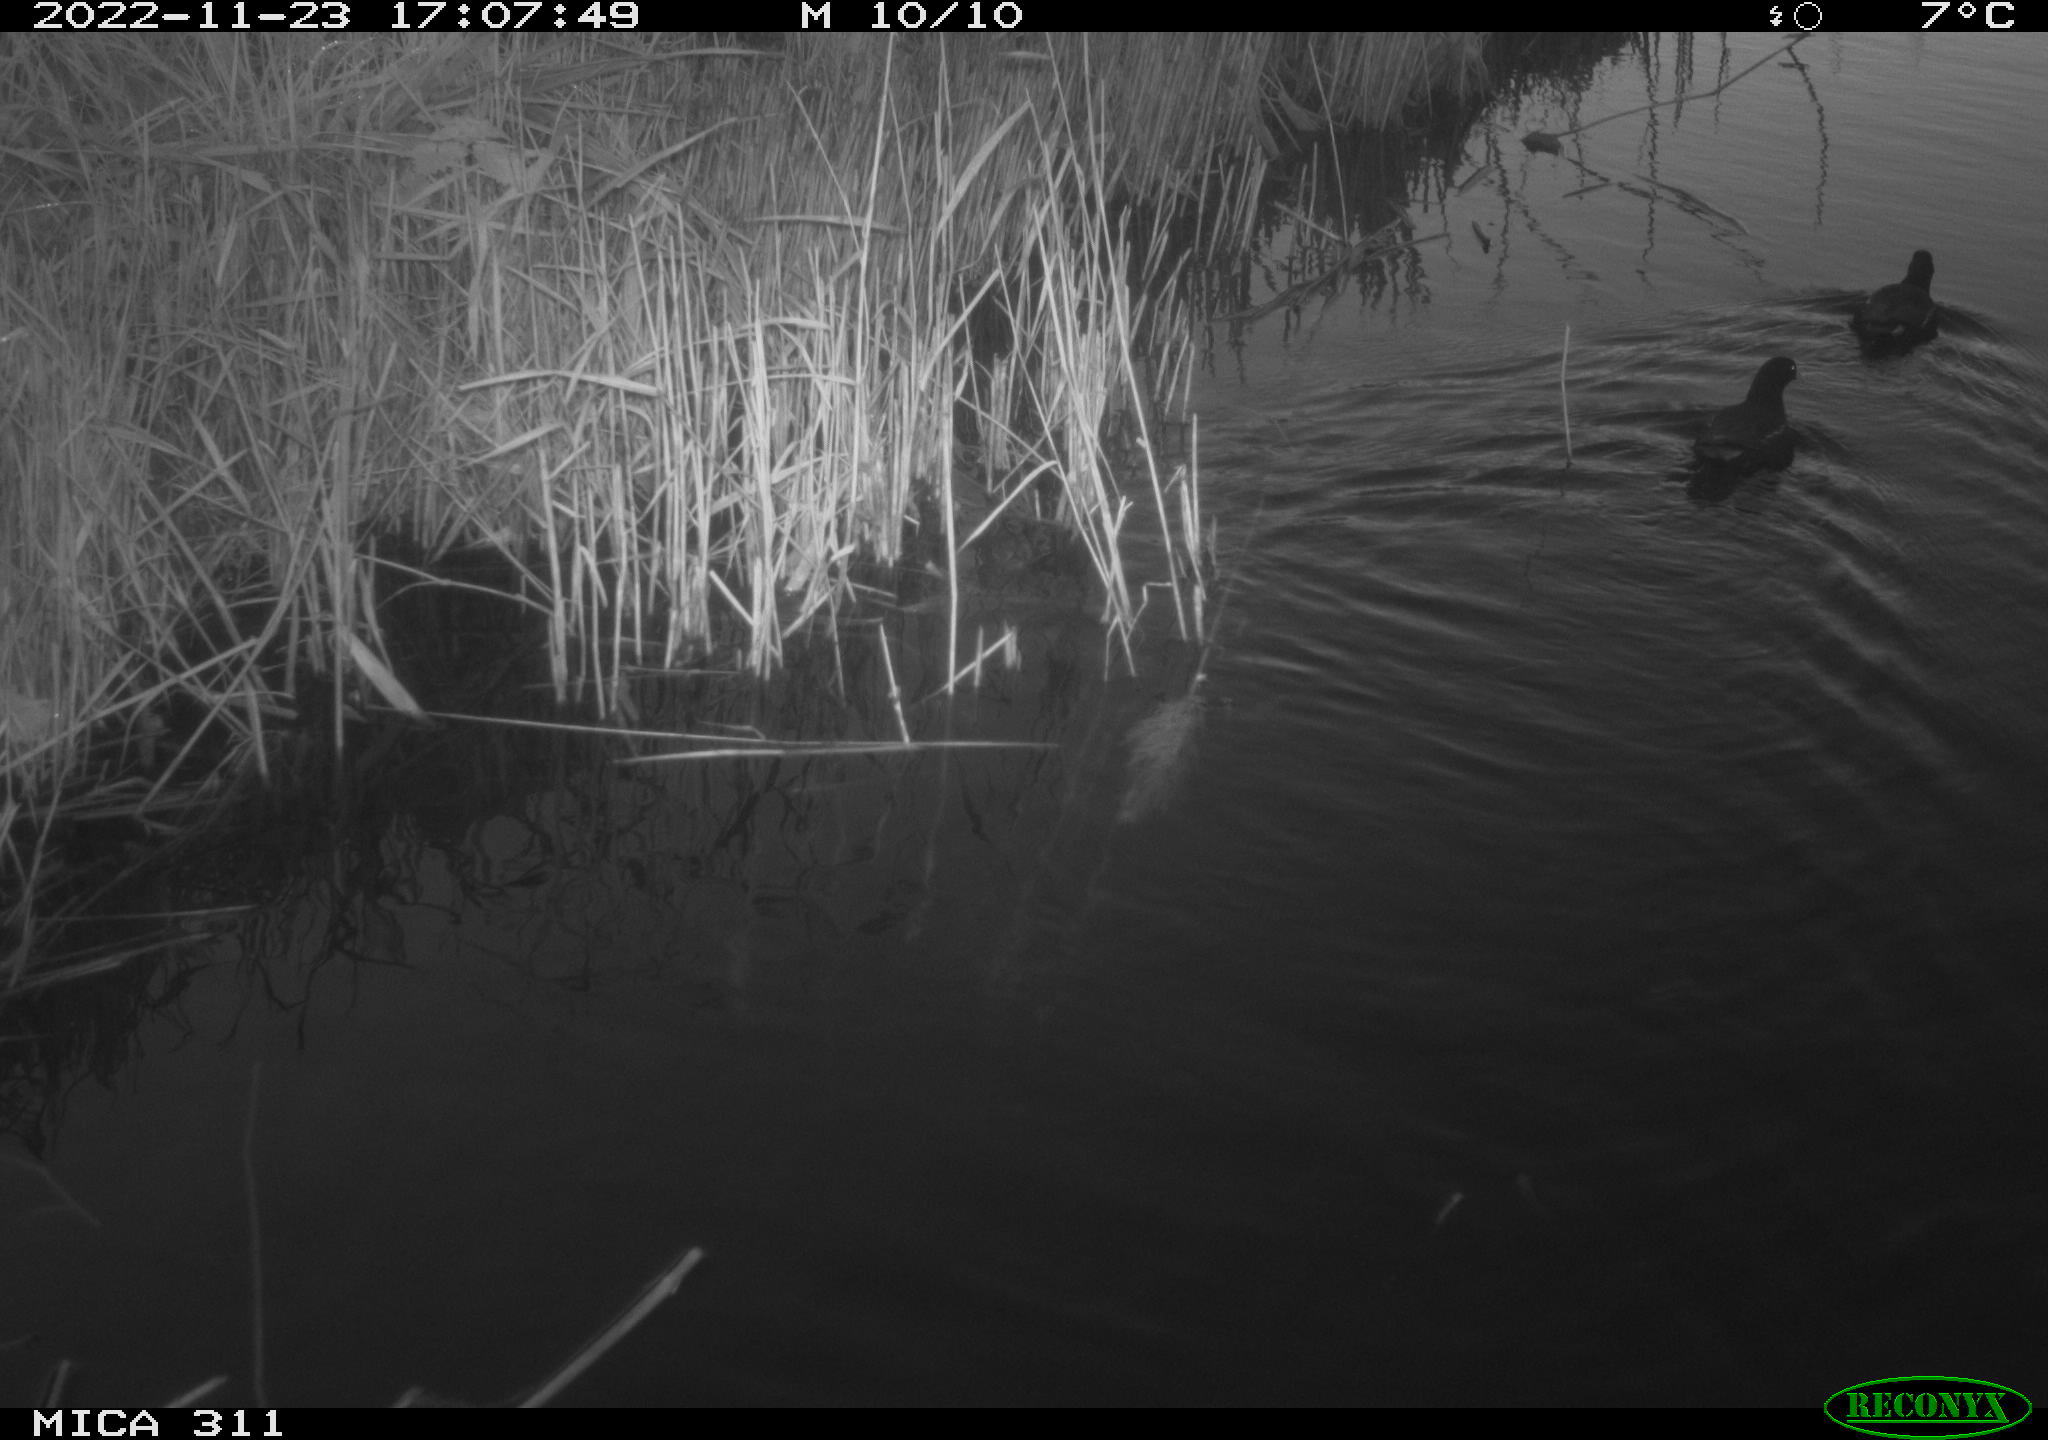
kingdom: Animalia
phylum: Chordata
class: Aves
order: Gruiformes
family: Rallidae
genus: Gallinula
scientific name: Gallinula chloropus
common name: Common moorhen
